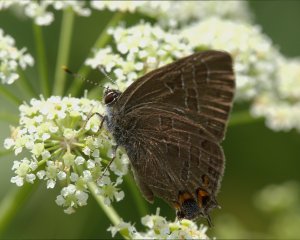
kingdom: Animalia
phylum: Arthropoda
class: Insecta
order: Lepidoptera
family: Lycaenidae
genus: Satyrium
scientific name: Satyrium liparops
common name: Striped Hairstreak
